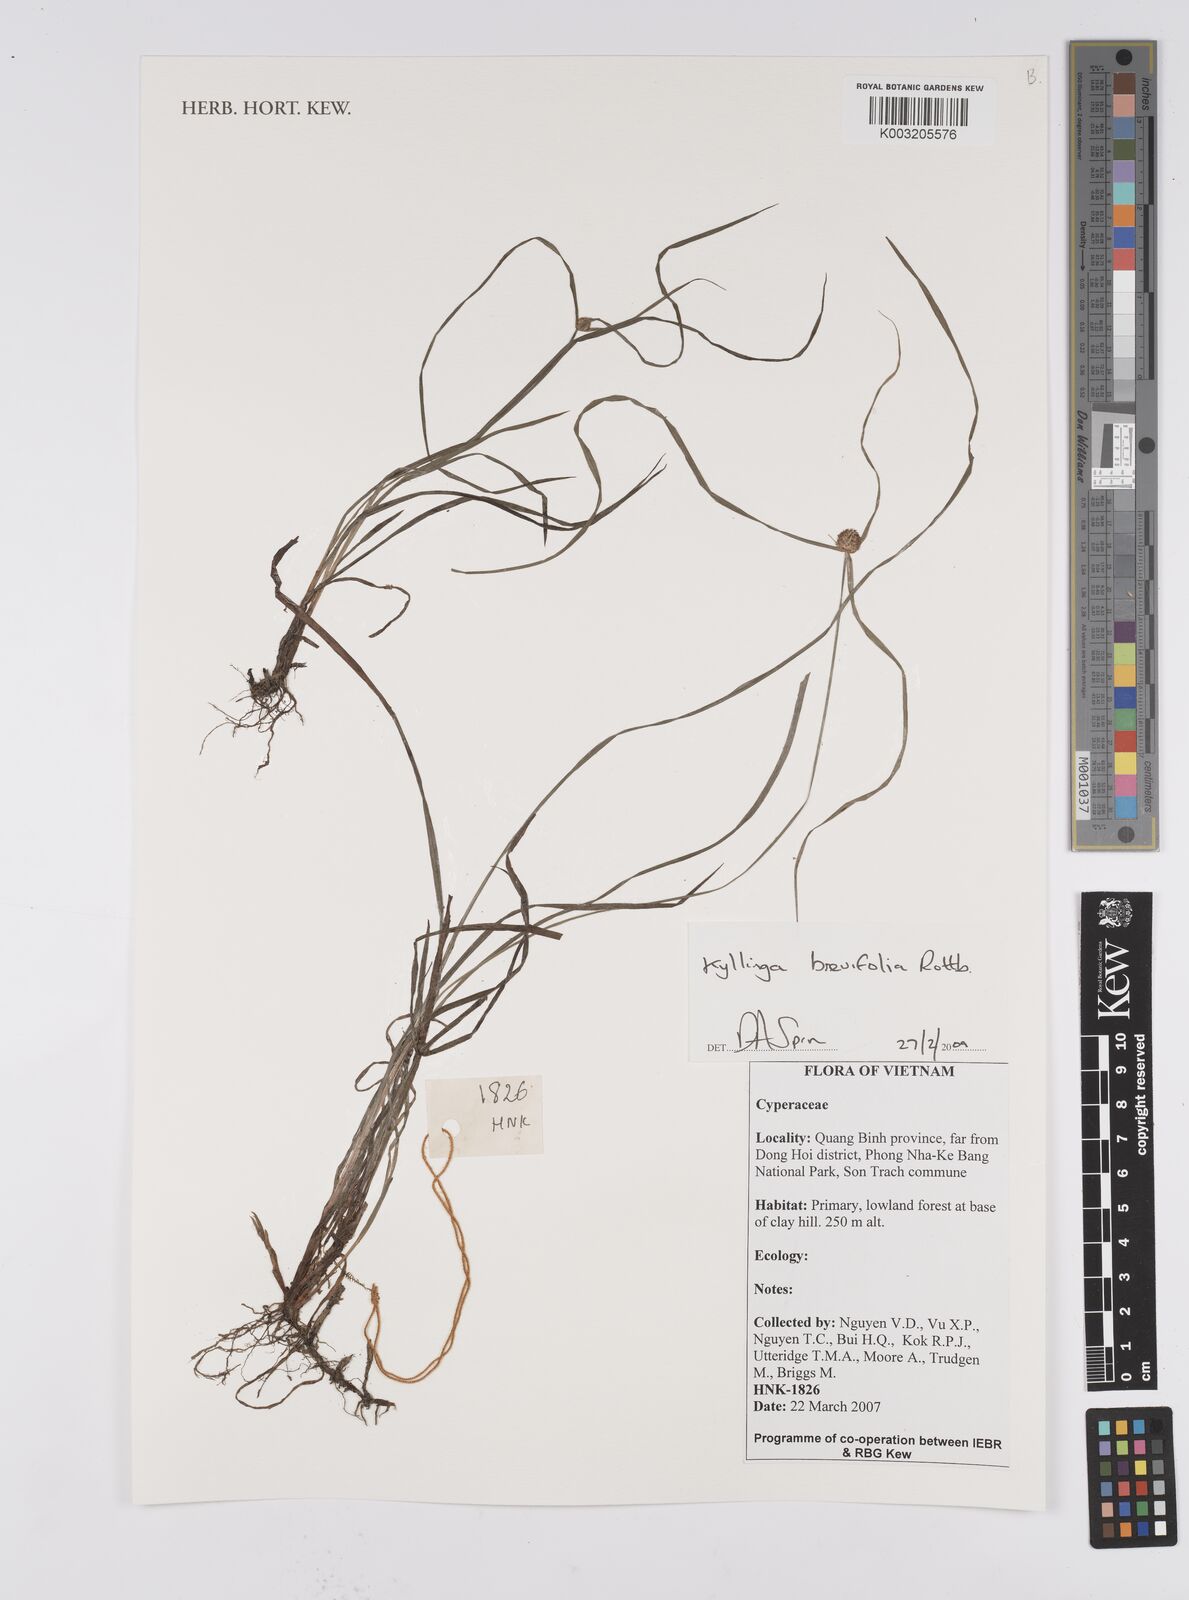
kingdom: Plantae
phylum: Tracheophyta
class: Liliopsida
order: Poales
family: Cyperaceae
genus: Cyperus
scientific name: Cyperus brevifolius
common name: Globe kyllinga
